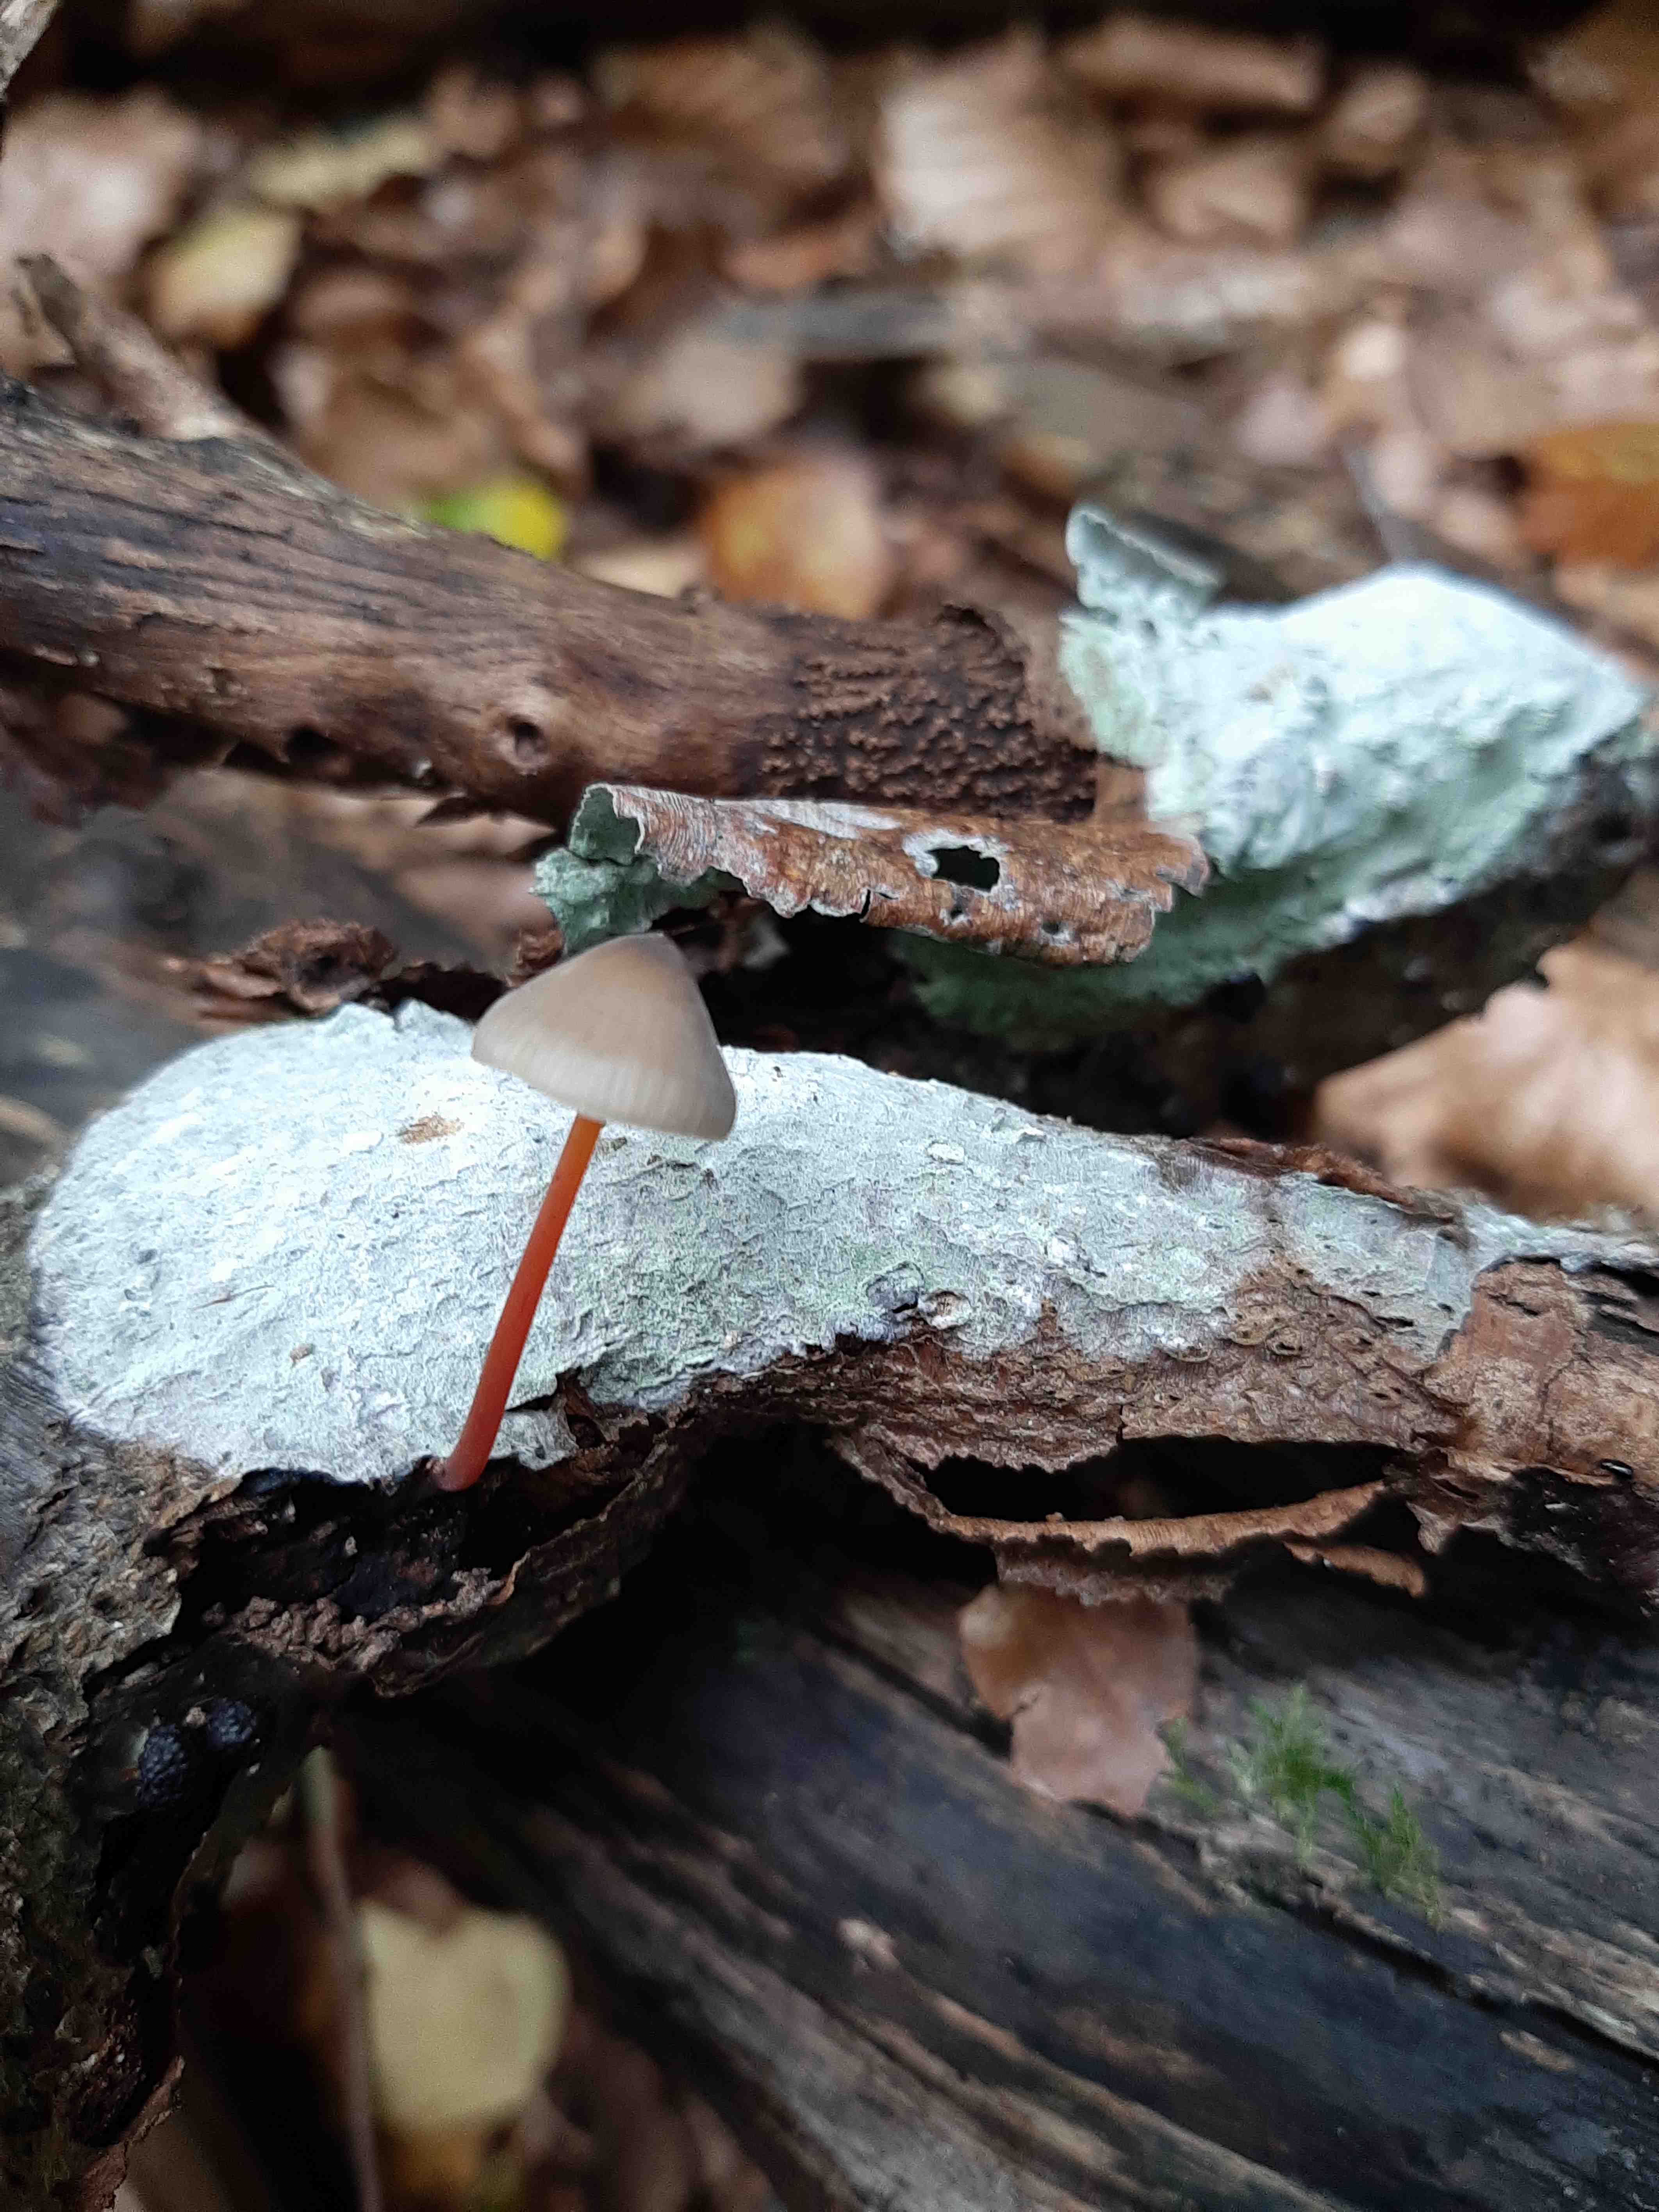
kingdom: Fungi
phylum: Basidiomycota
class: Agaricomycetes
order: Agaricales
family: Mycenaceae
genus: Mycena
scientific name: Mycena crocata
